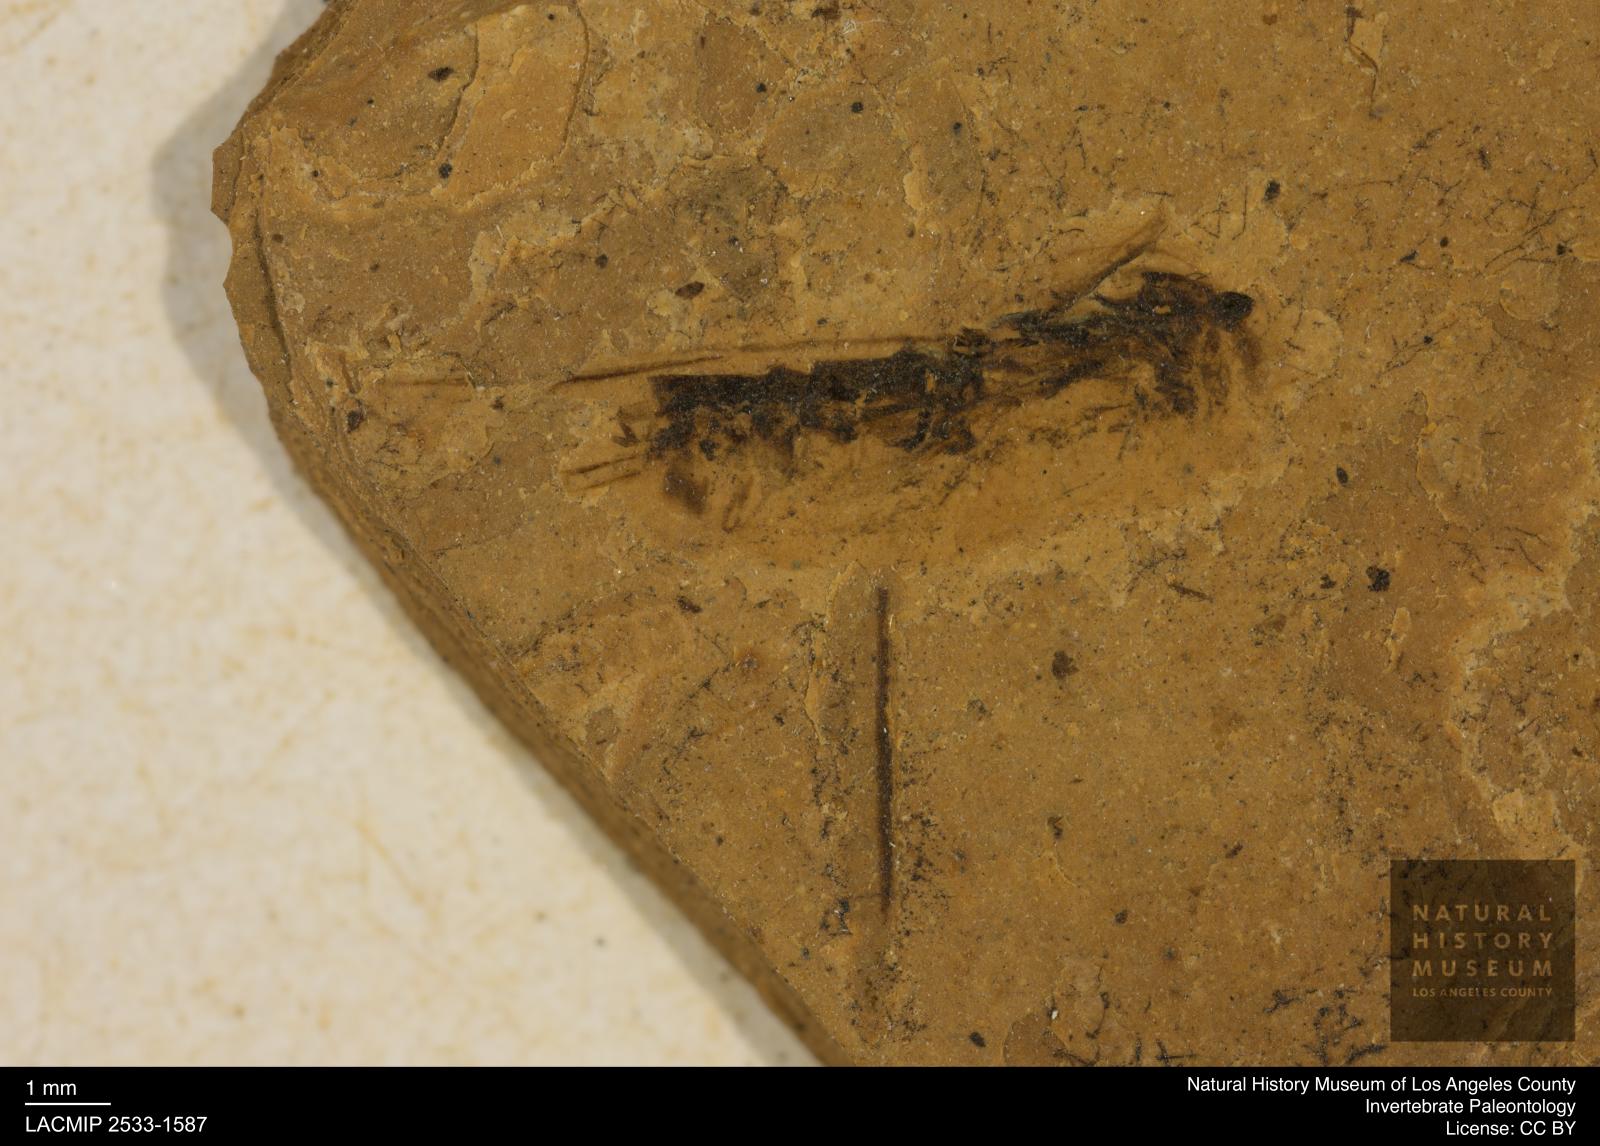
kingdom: Animalia
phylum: Arthropoda
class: Insecta
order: Hemiptera
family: Notonectidae
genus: Notonecta
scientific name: Notonecta
